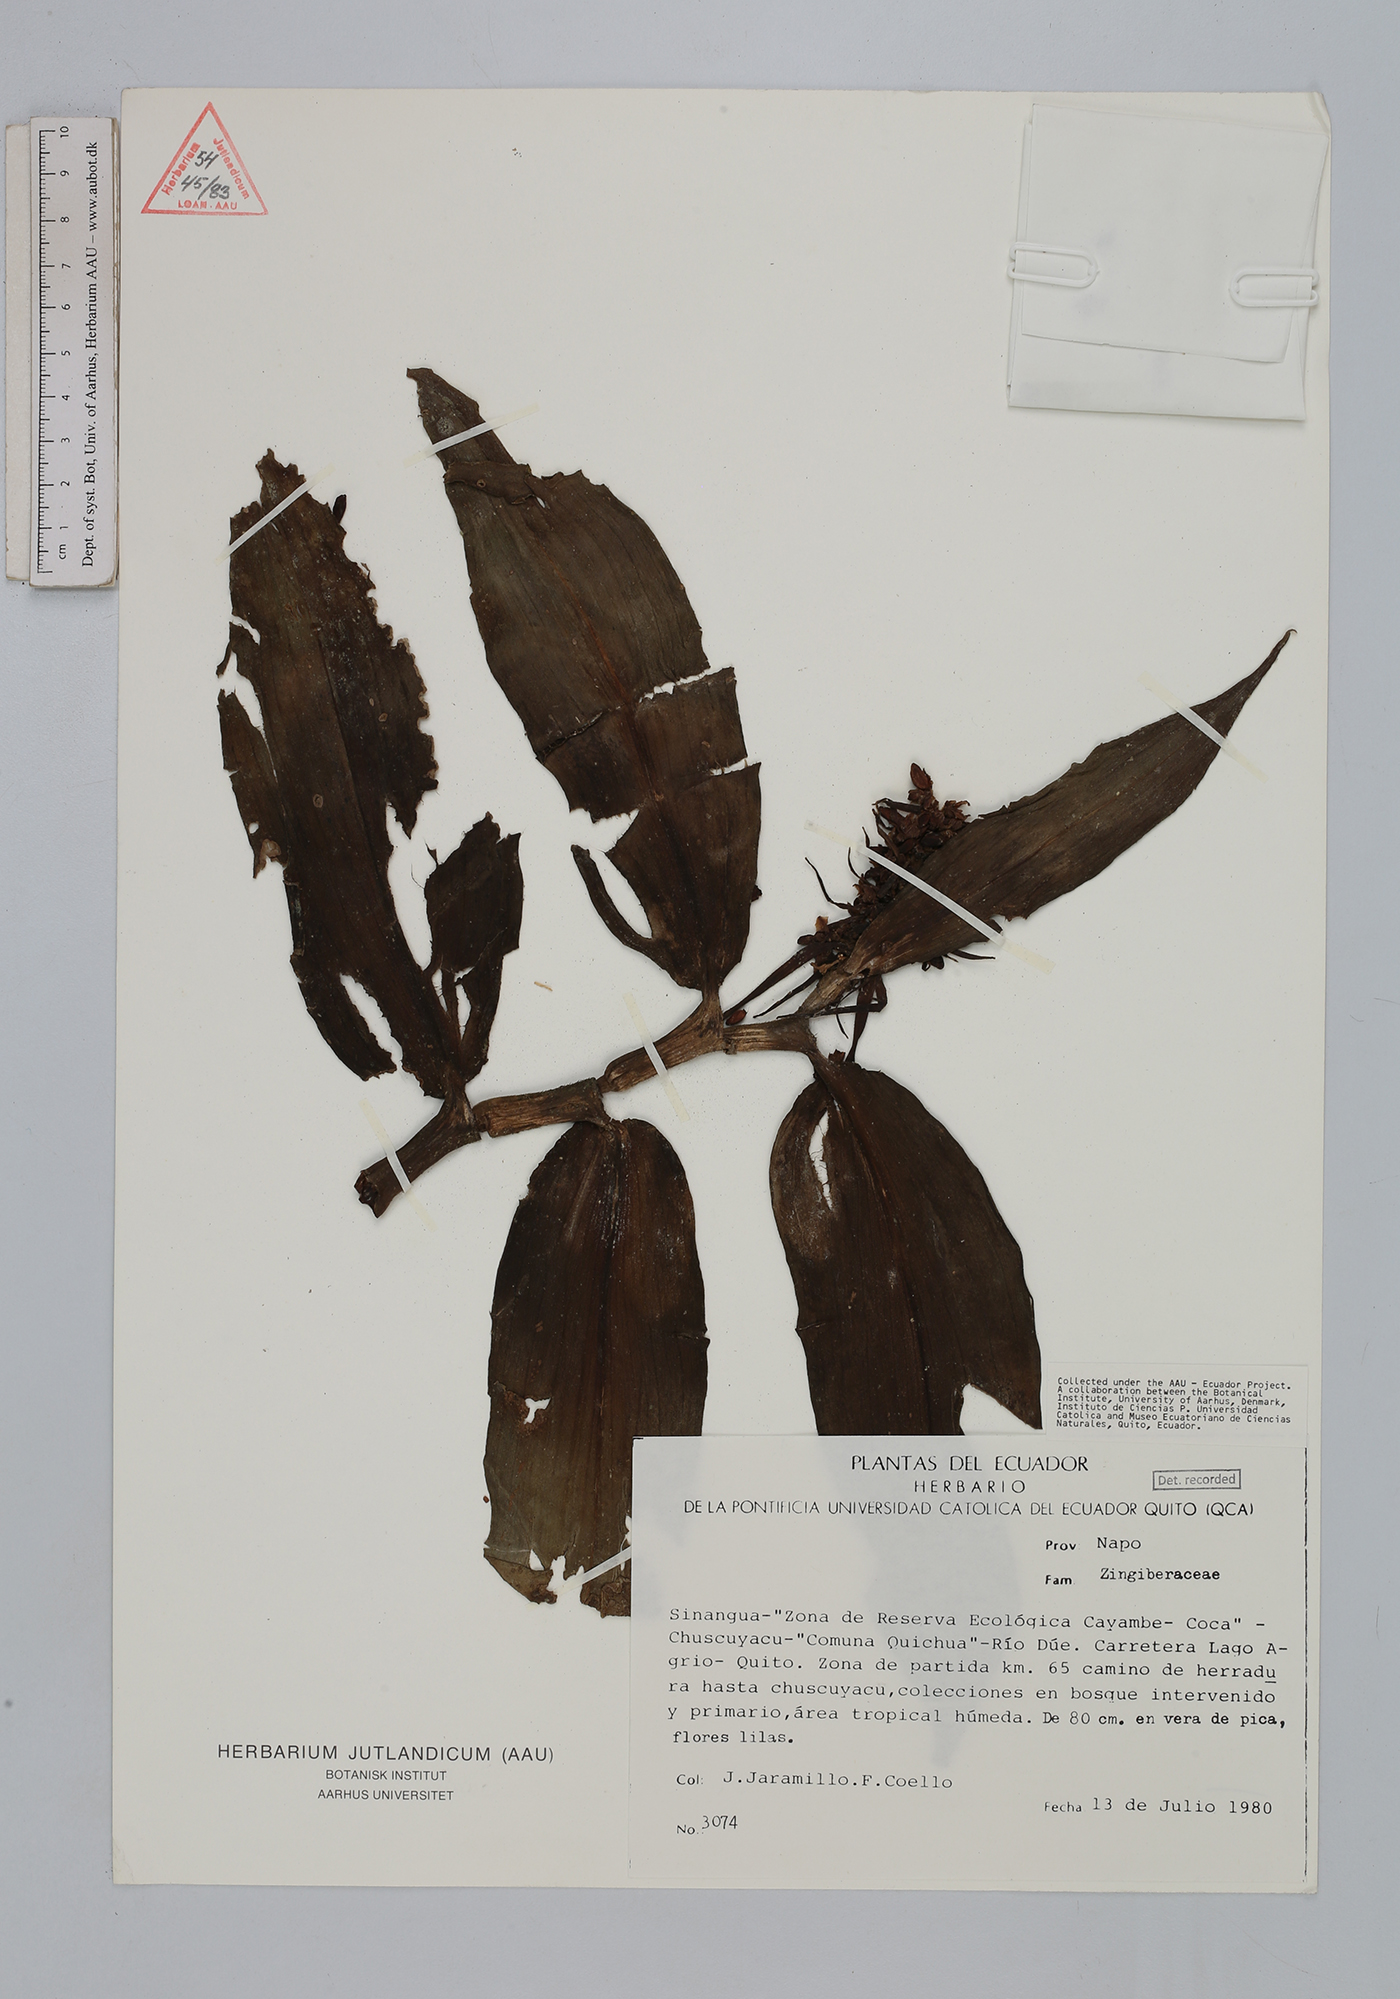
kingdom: Plantae
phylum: Tracheophyta
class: Liliopsida
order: Zingiberales
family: Zingiberaceae
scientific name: Zingiberaceae
